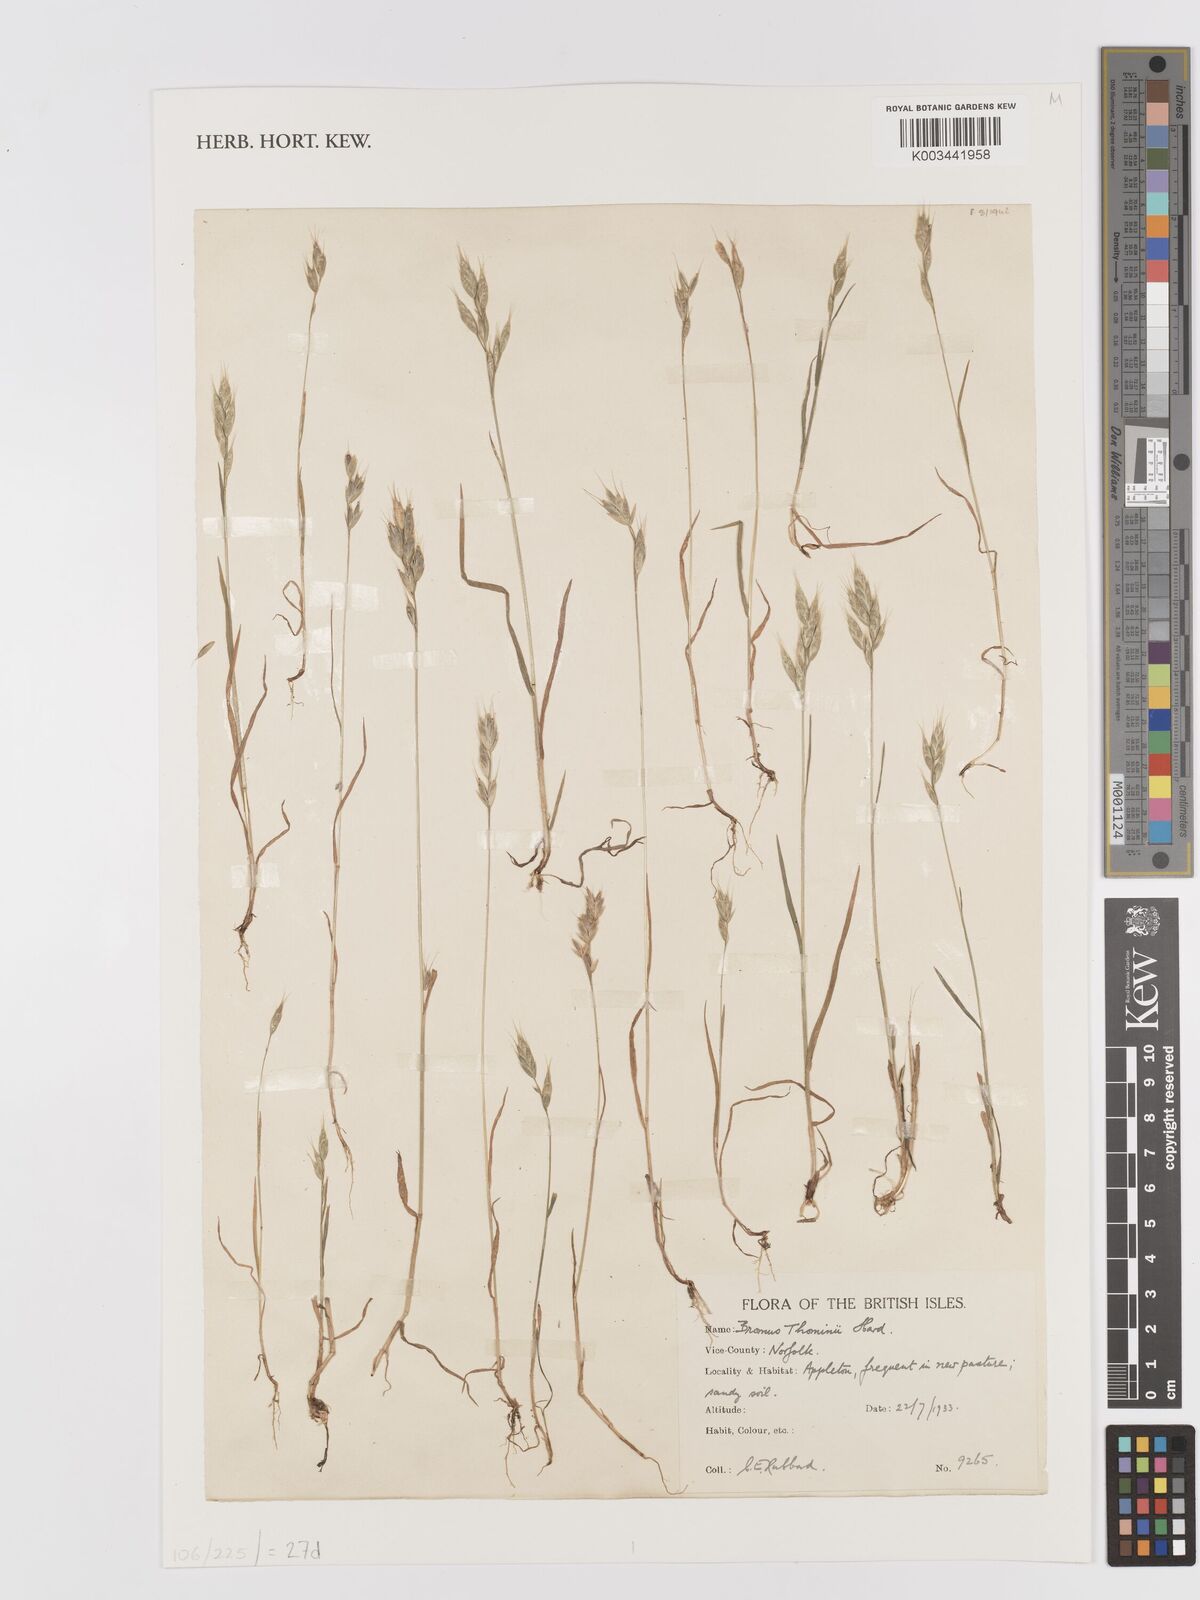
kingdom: Plantae
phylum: Tracheophyta
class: Liliopsida
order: Poales
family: Poaceae
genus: Bromus
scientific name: Bromus hordeaceus
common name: Soft brome
